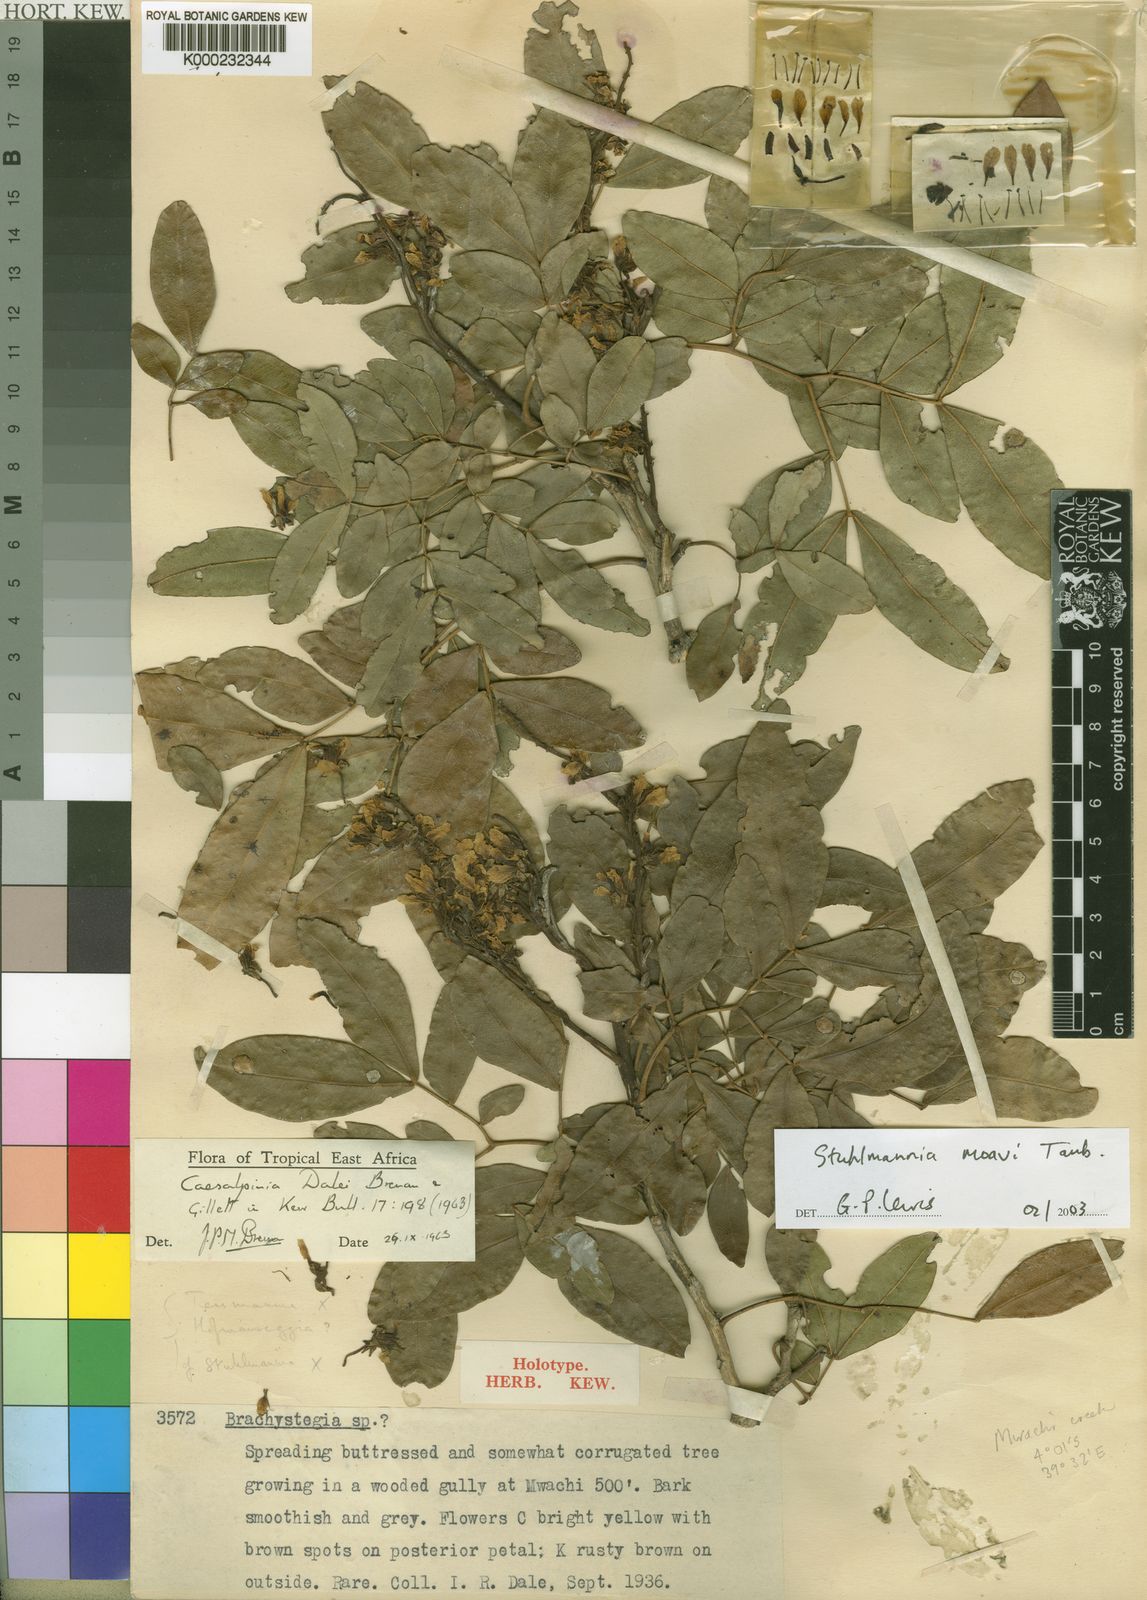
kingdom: Plantae
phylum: Tracheophyta
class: Magnoliopsida
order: Fabales
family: Fabaceae
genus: Stuhlmannia
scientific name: Stuhlmannia moavi
